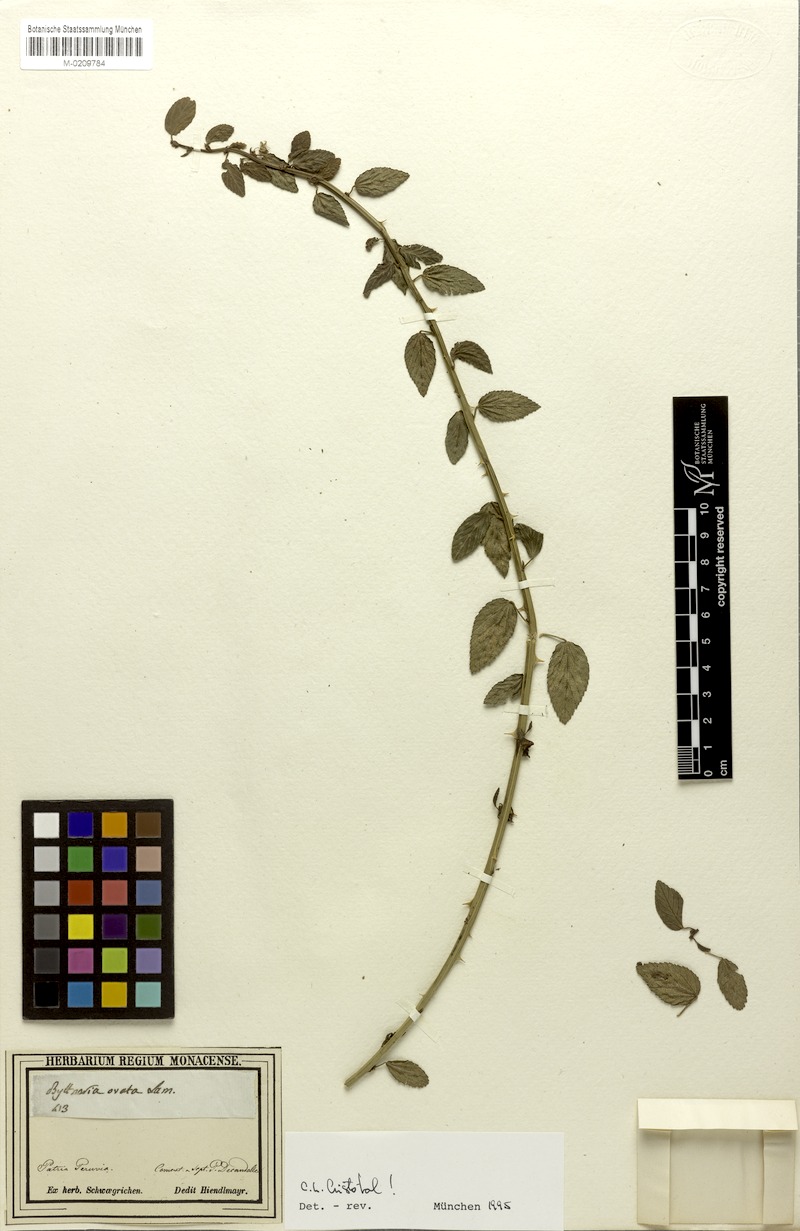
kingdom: Plantae
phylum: Tracheophyta
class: Magnoliopsida
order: Malvales
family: Malvaceae
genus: Byttneria
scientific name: Byttneria ovata
